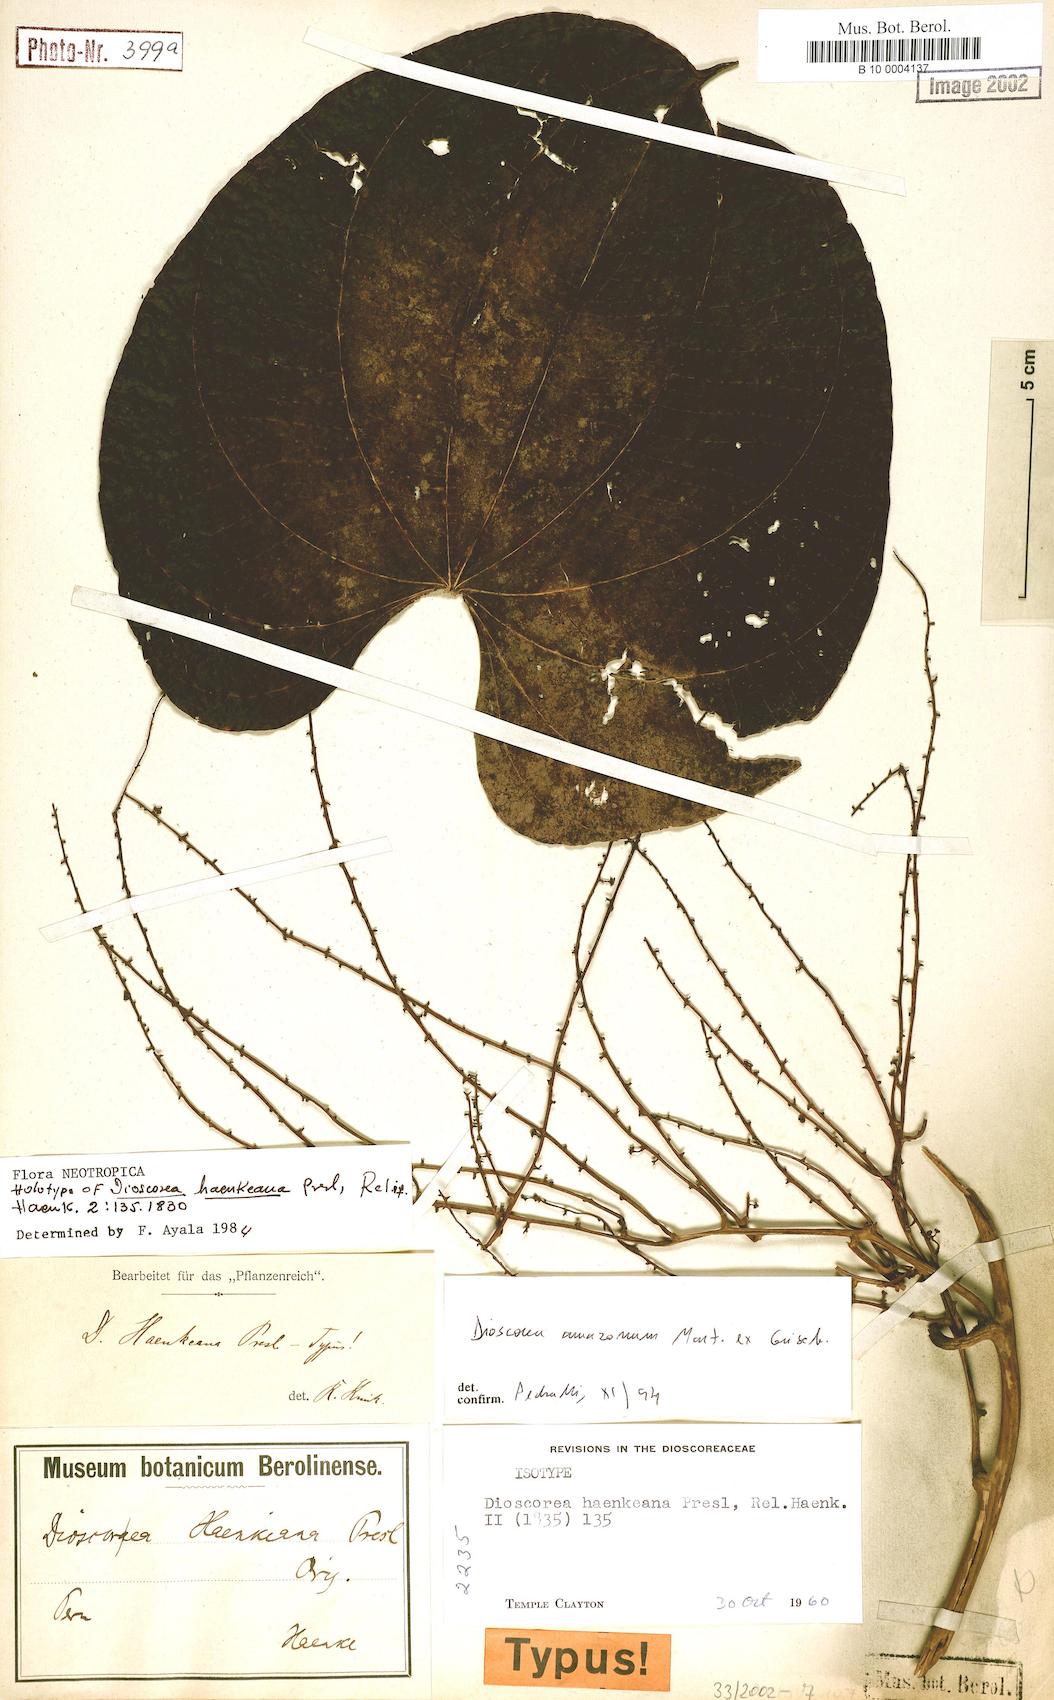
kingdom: Plantae
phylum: Tracheophyta
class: Liliopsida
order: Dioscoreales
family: Dioscoreaceae
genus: Dioscorea
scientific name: Dioscorea haenkeana
